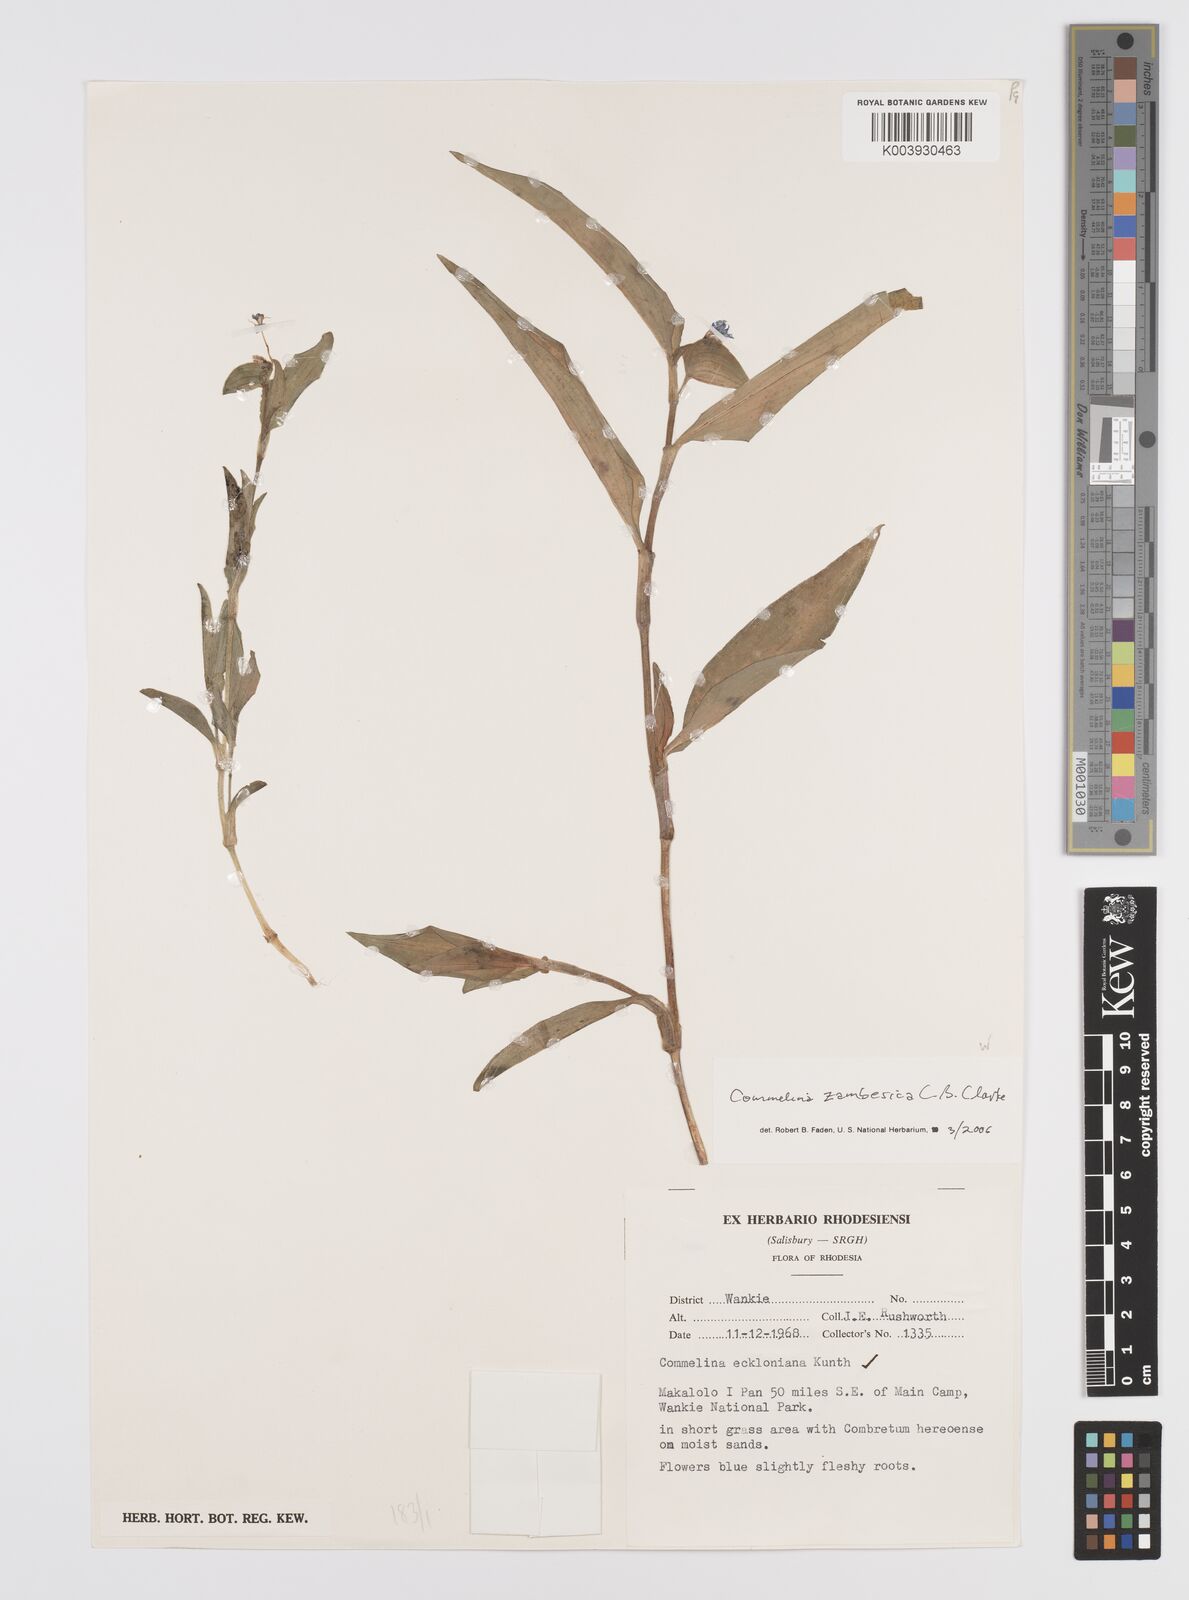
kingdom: Plantae
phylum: Tracheophyta
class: Liliopsida
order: Commelinales
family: Commelinaceae
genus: Commelina
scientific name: Commelina zambesica
